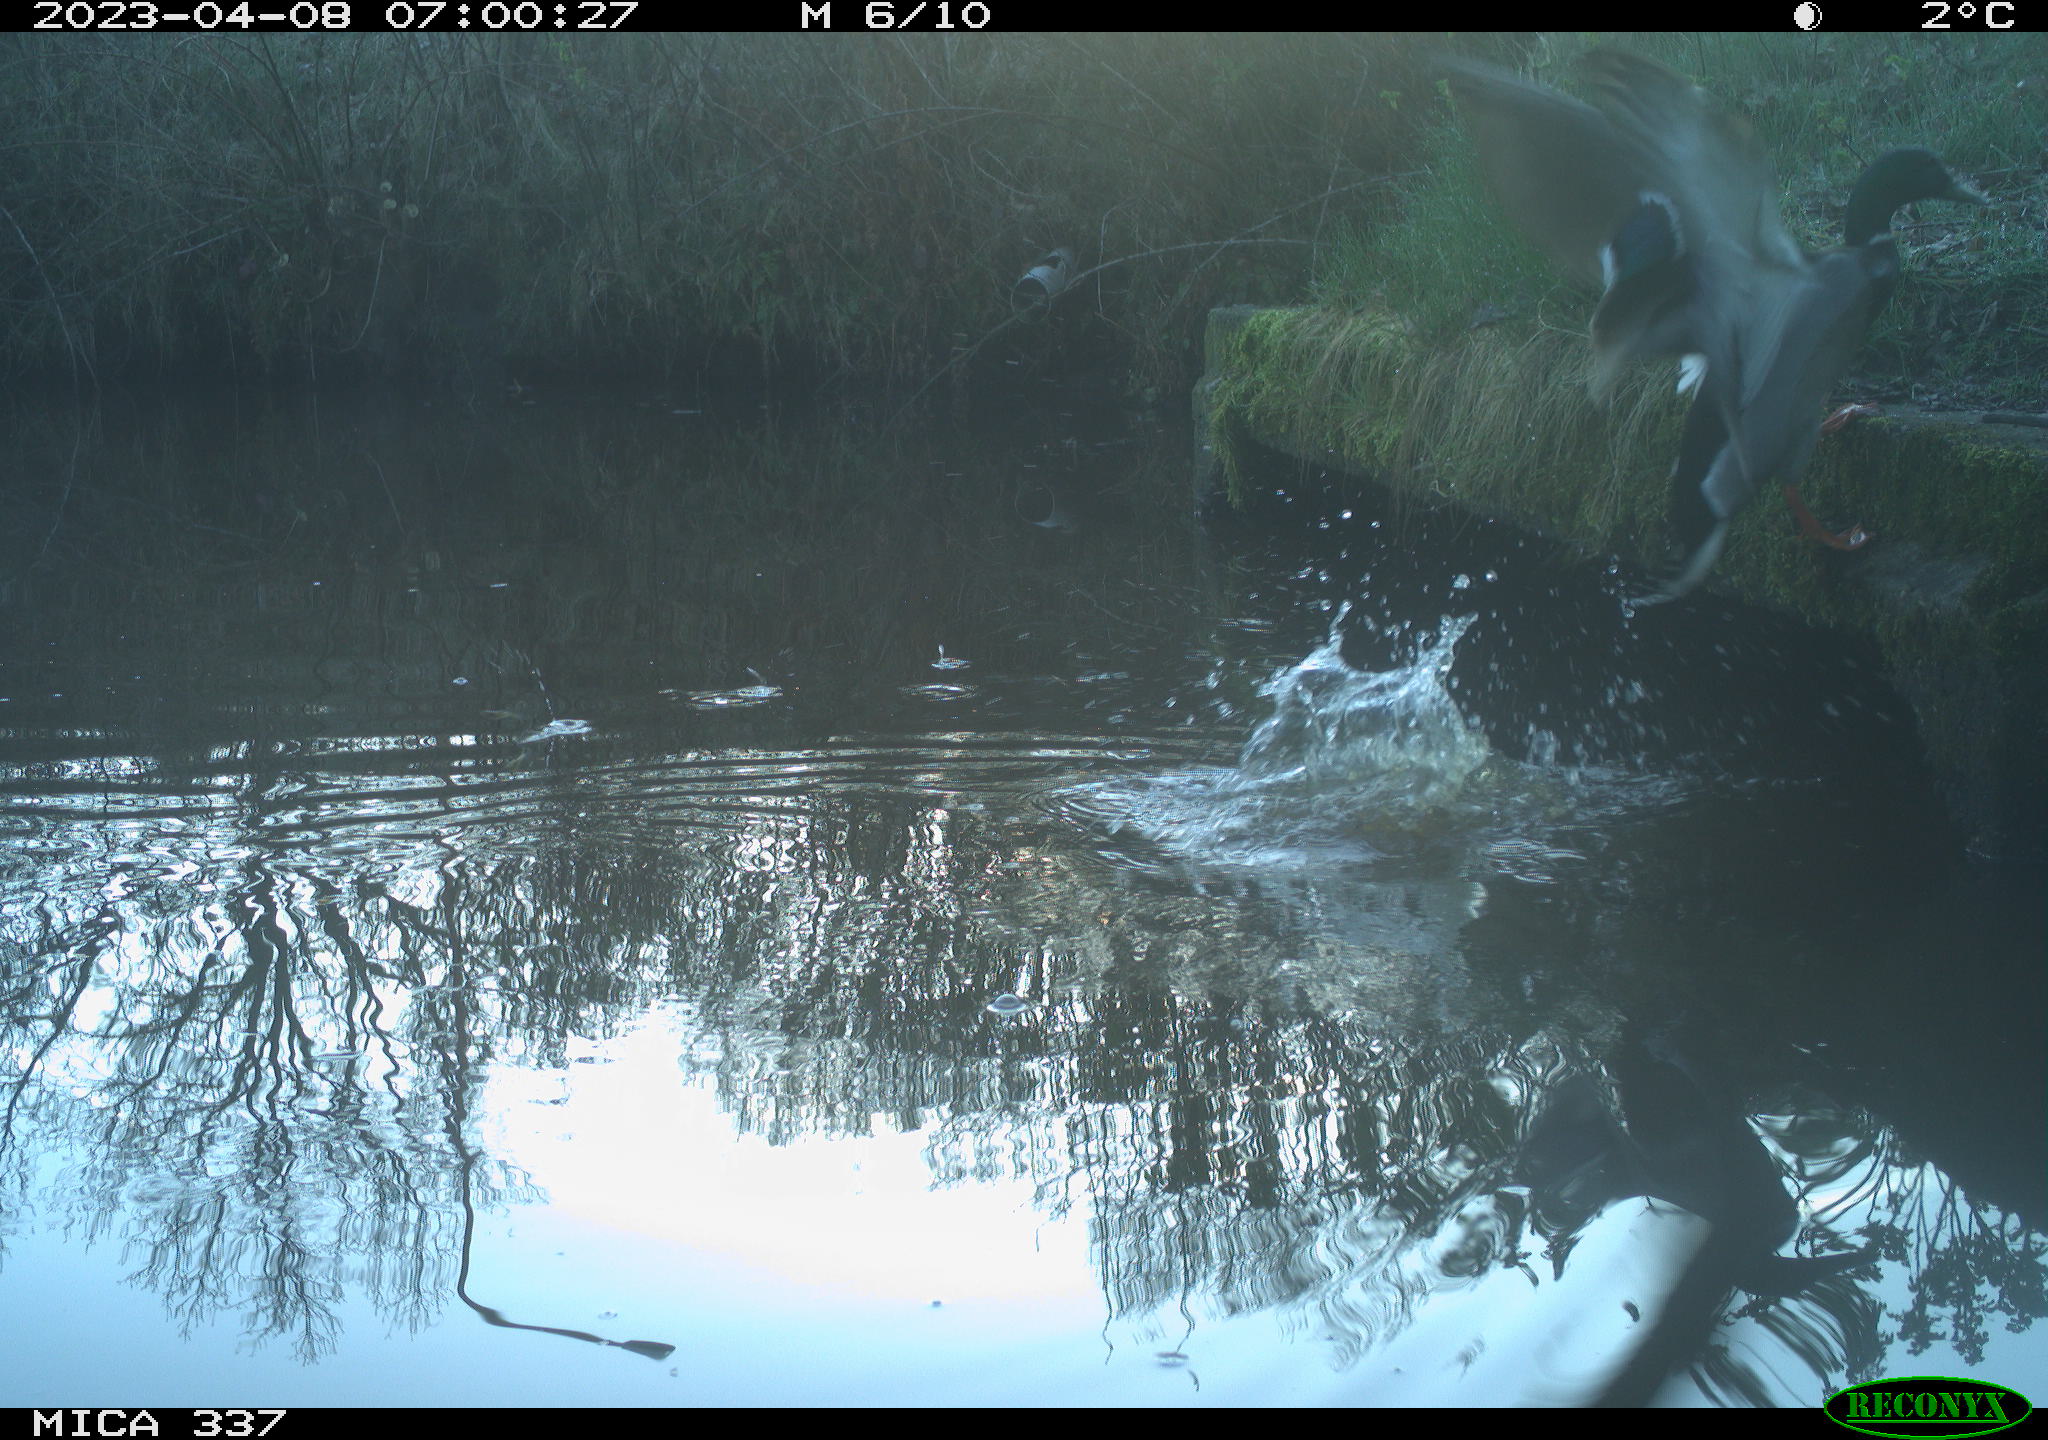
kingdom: Animalia
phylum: Chordata
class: Aves
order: Anseriformes
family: Anatidae
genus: Anas
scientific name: Anas
